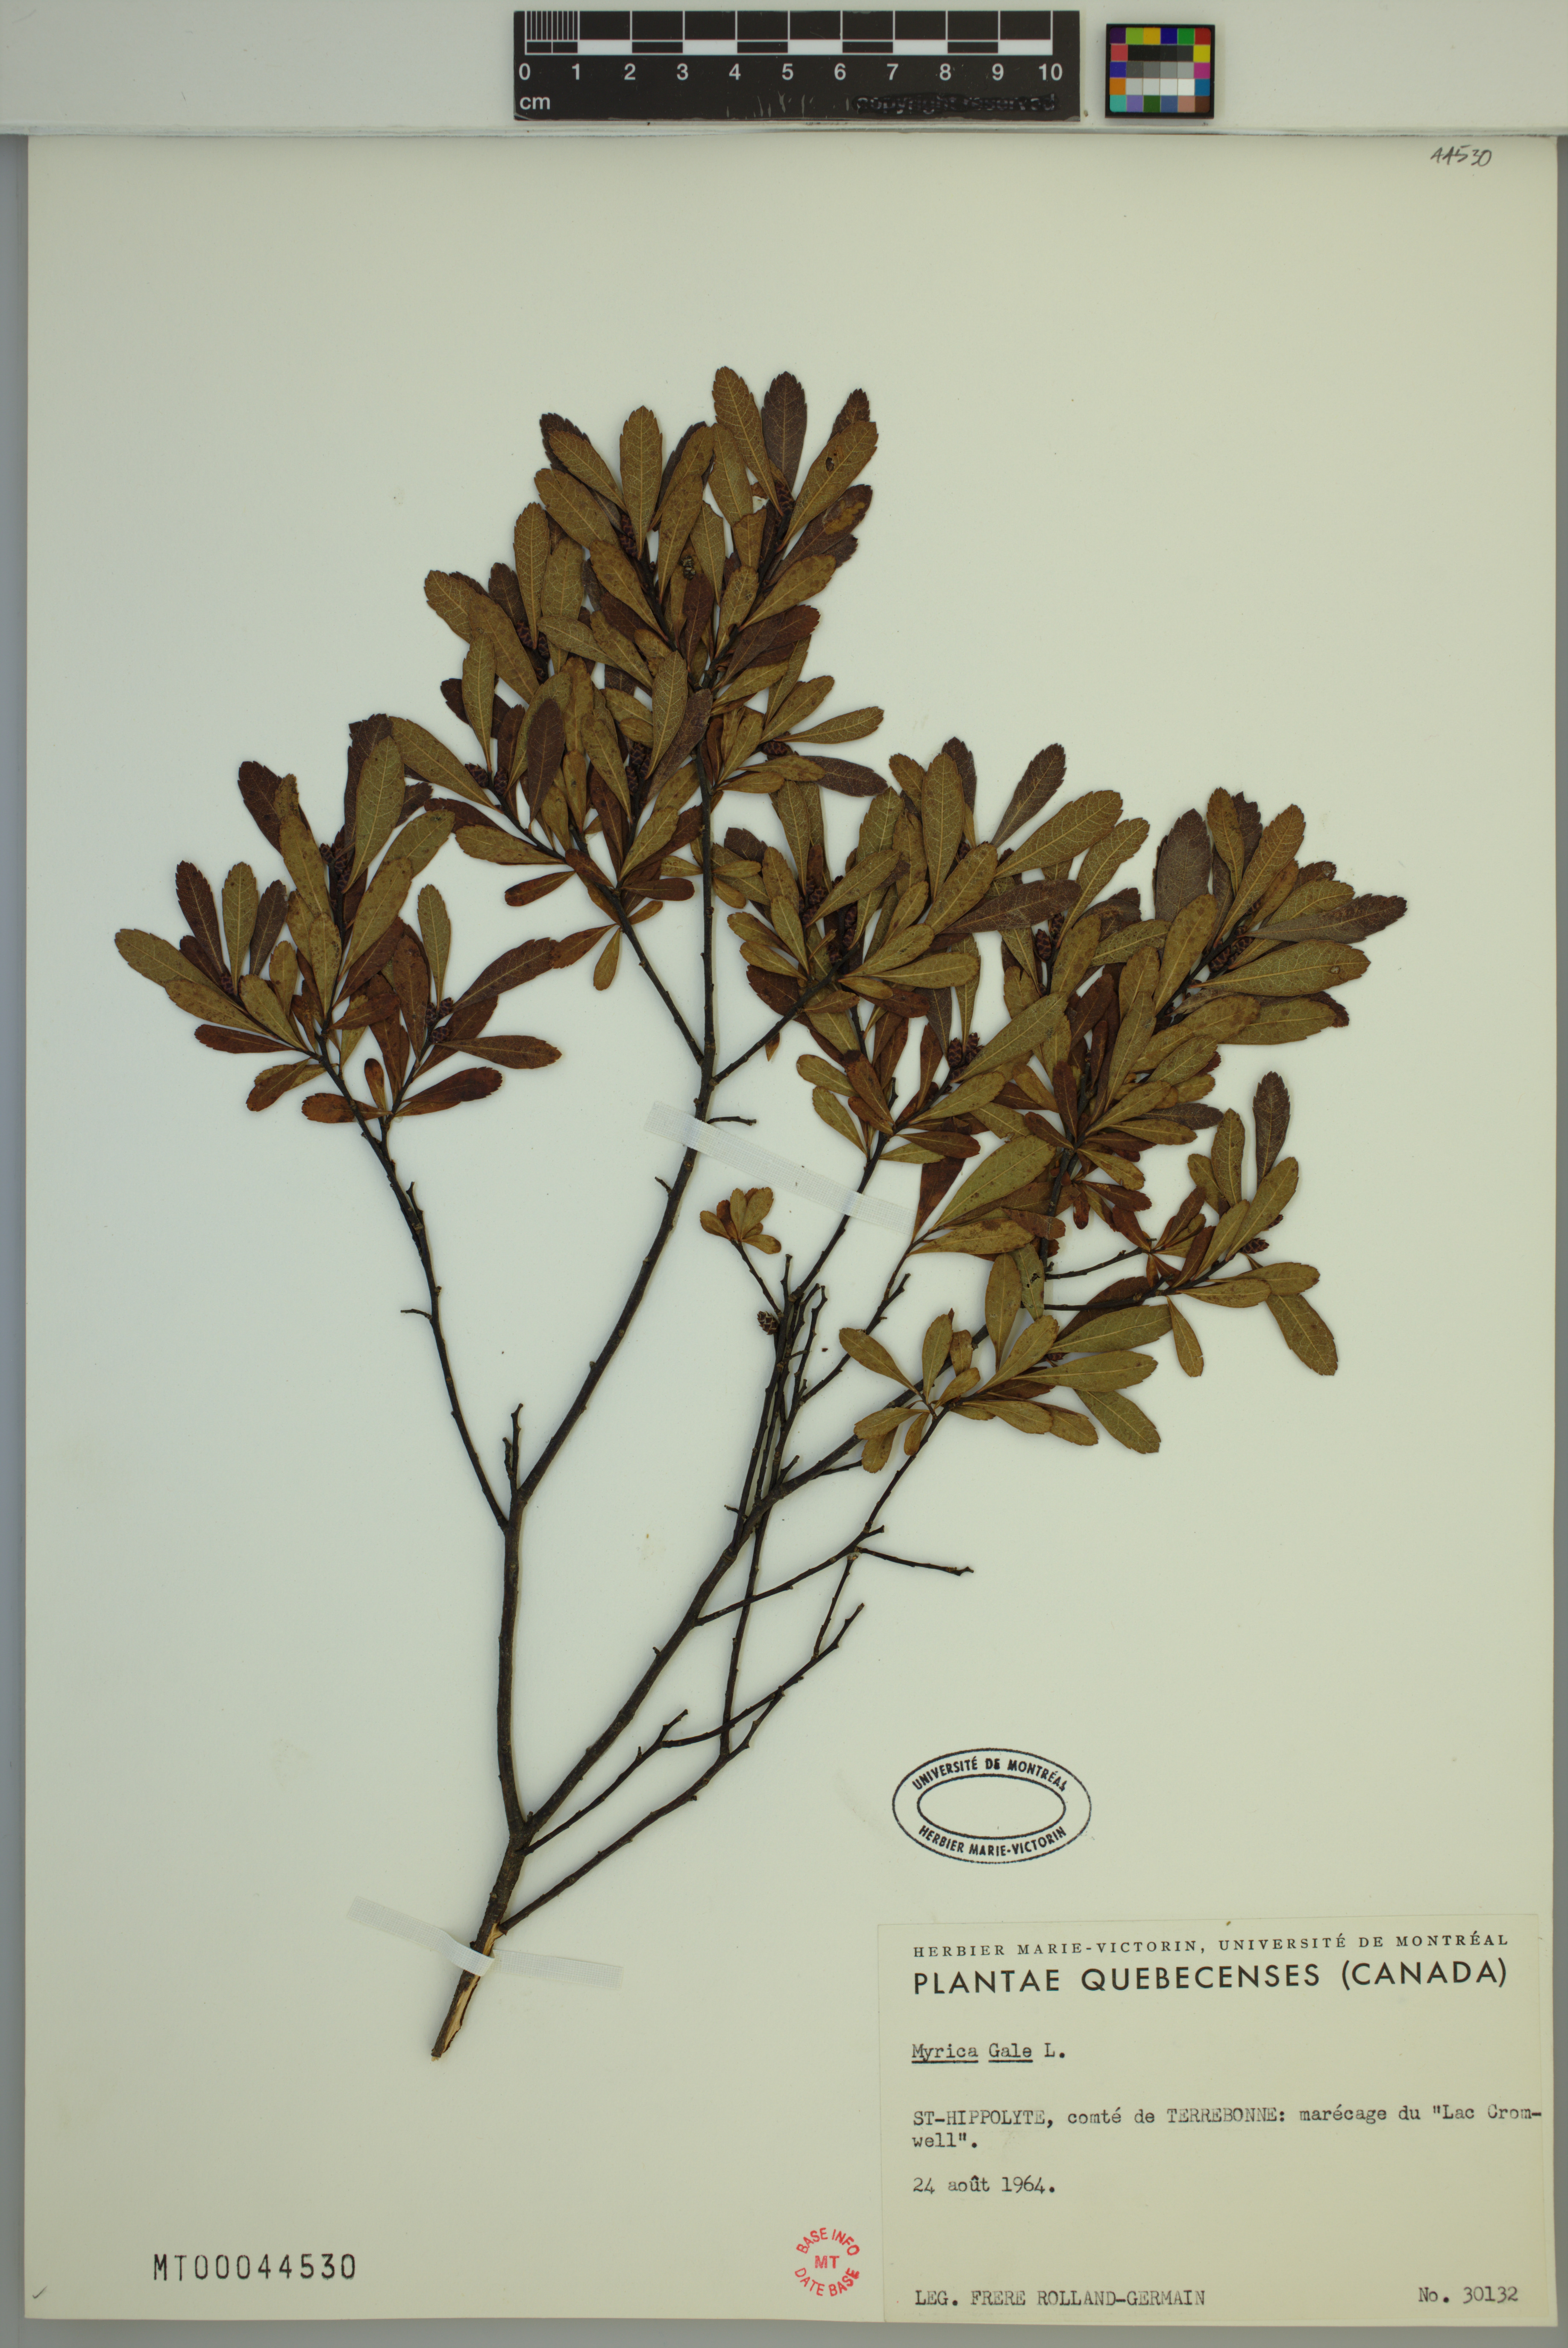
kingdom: Plantae
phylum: Tracheophyta
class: Magnoliopsida
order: Fagales
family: Myricaceae
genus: Myrica
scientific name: Myrica gale
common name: Sweet gale
